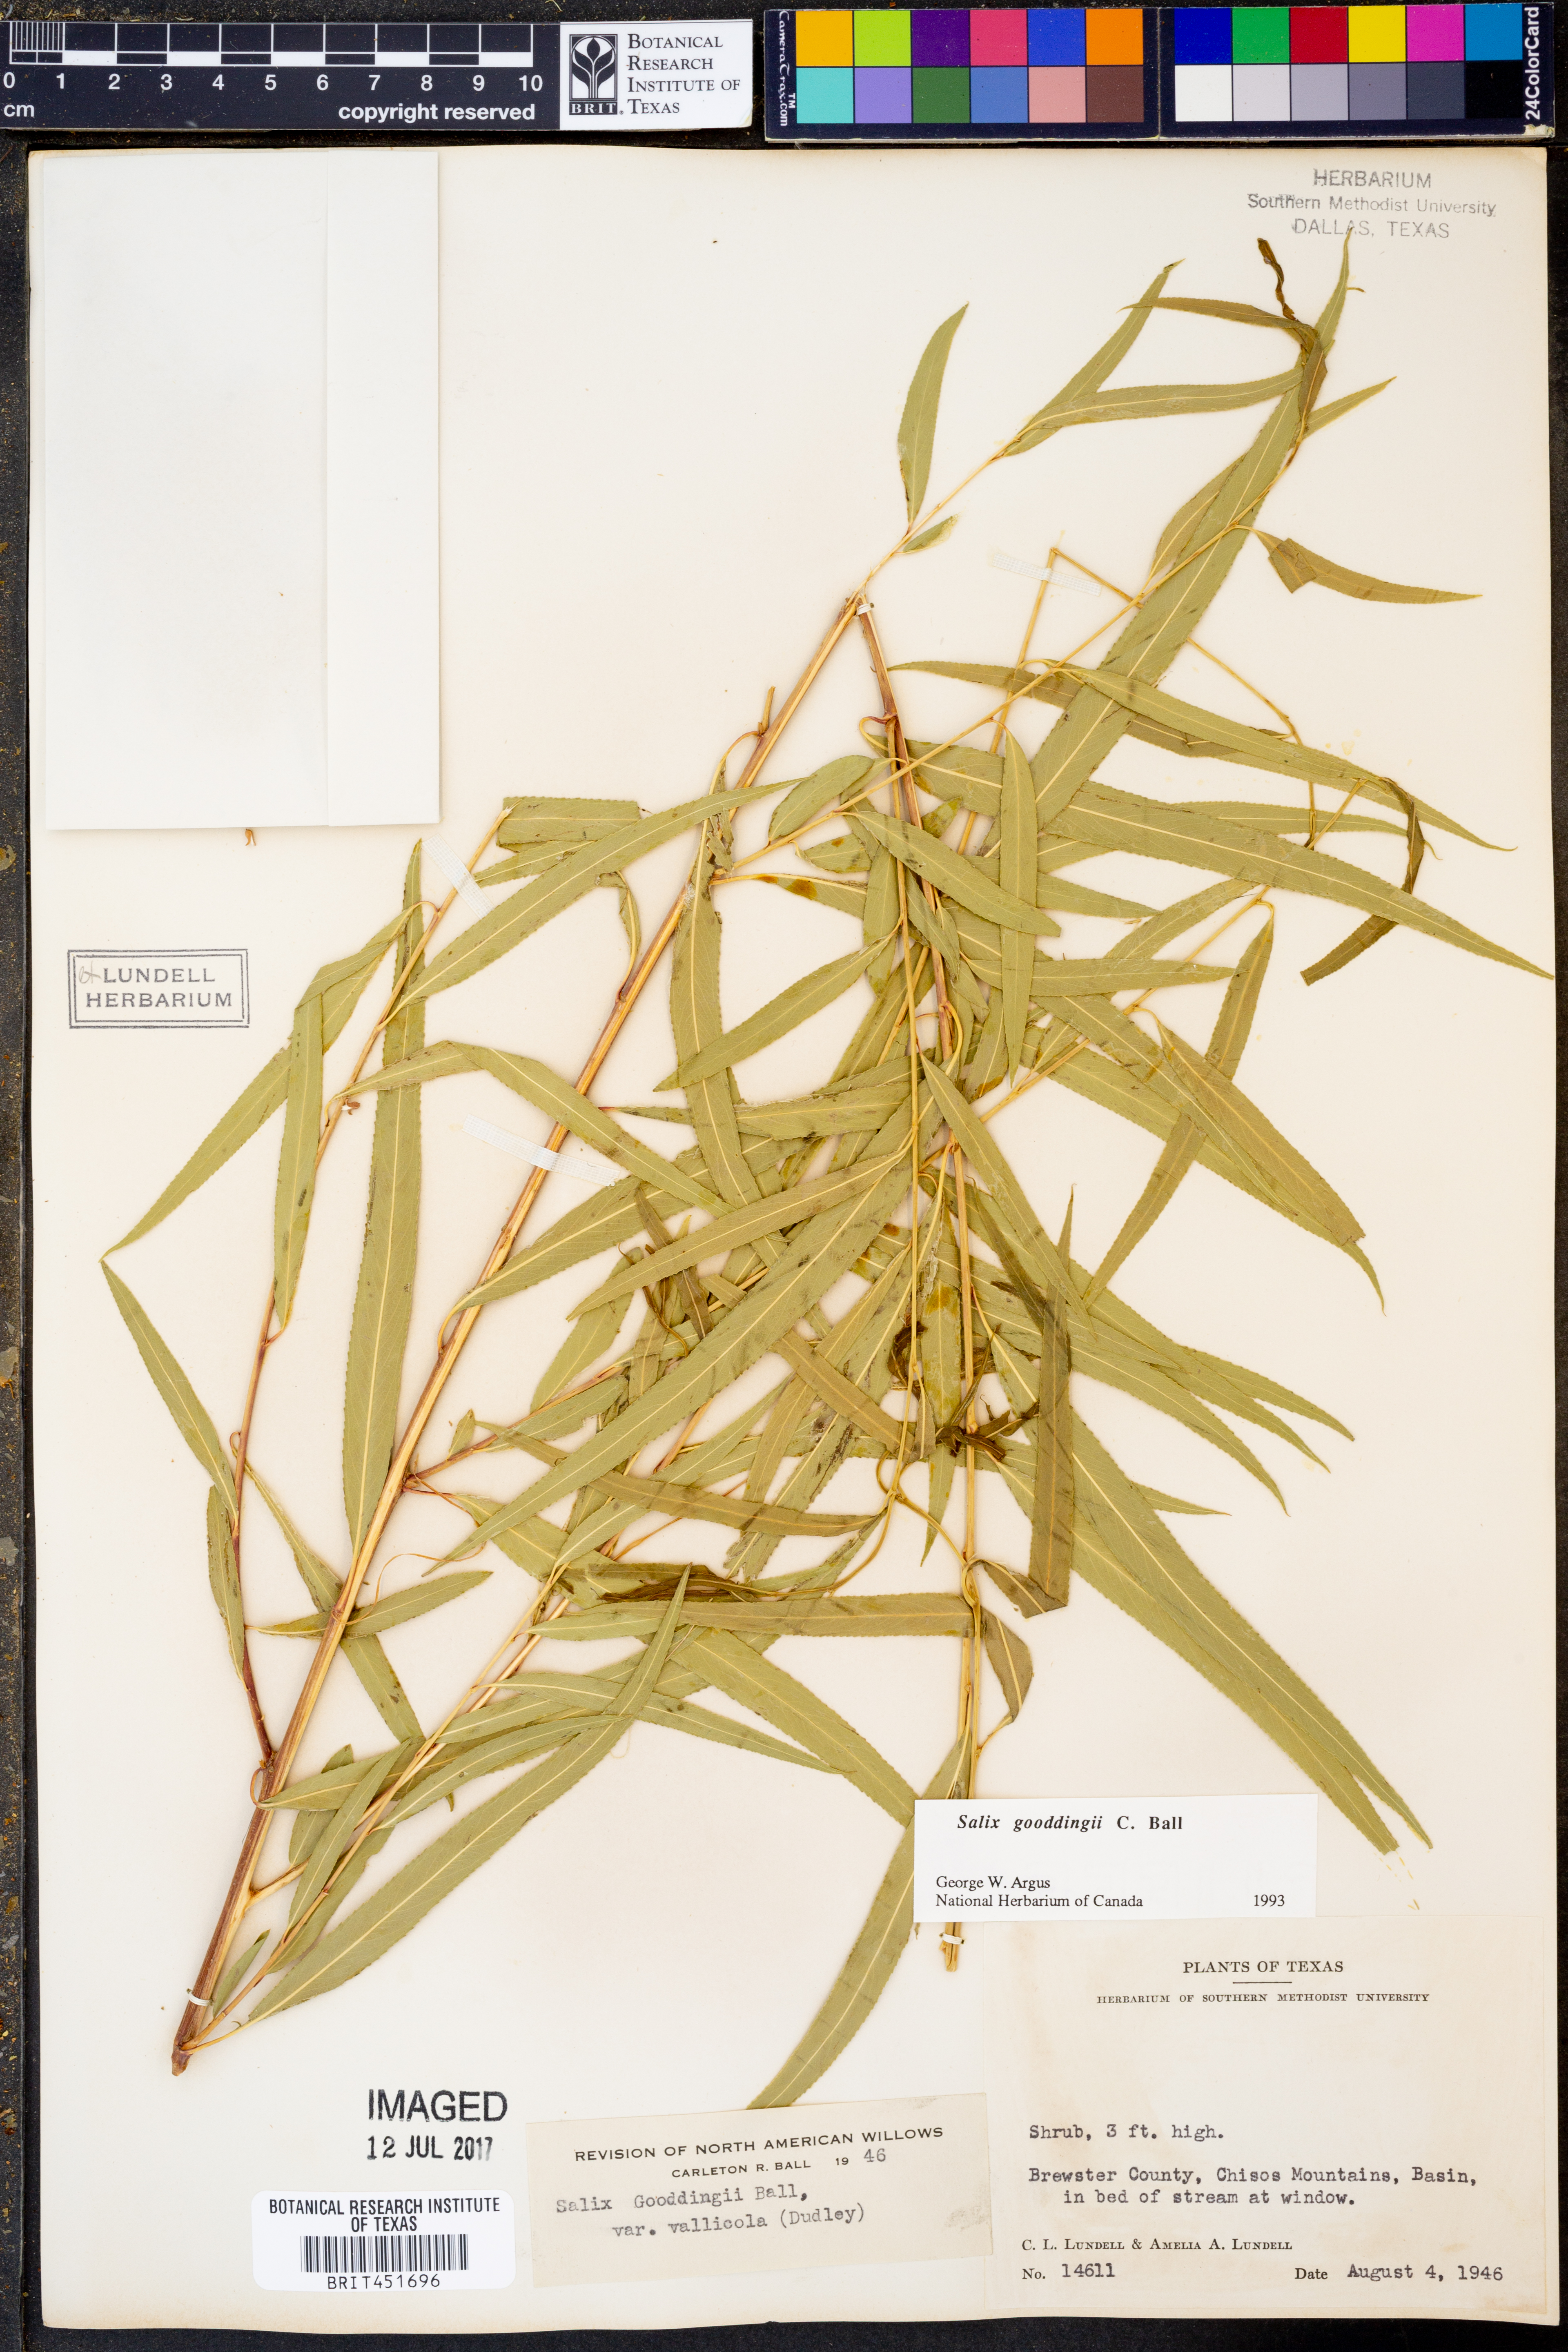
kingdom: Plantae
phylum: Tracheophyta
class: Magnoliopsida
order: Malpighiales
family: Salicaceae
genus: Salix
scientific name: Salix gooddingii
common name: Goodding's willow
